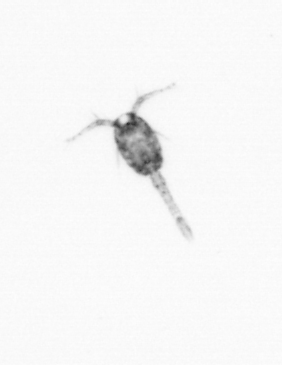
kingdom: Animalia
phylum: Arthropoda
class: Copepoda
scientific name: Copepoda
